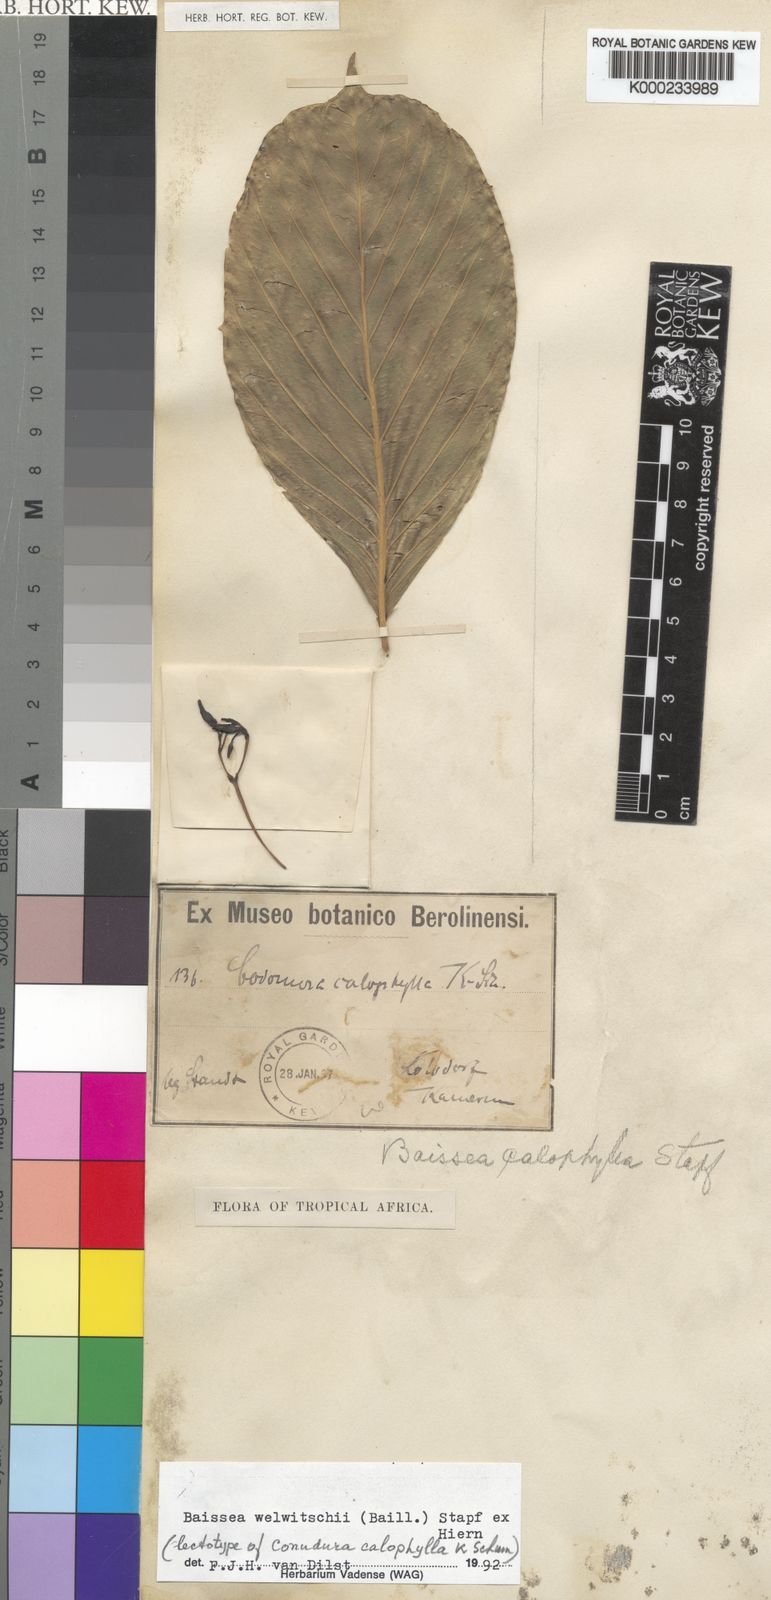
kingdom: Plantae
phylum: Tracheophyta
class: Magnoliopsida
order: Gentianales
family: Apocynaceae
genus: Baissea
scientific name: Baissea welwitschii
